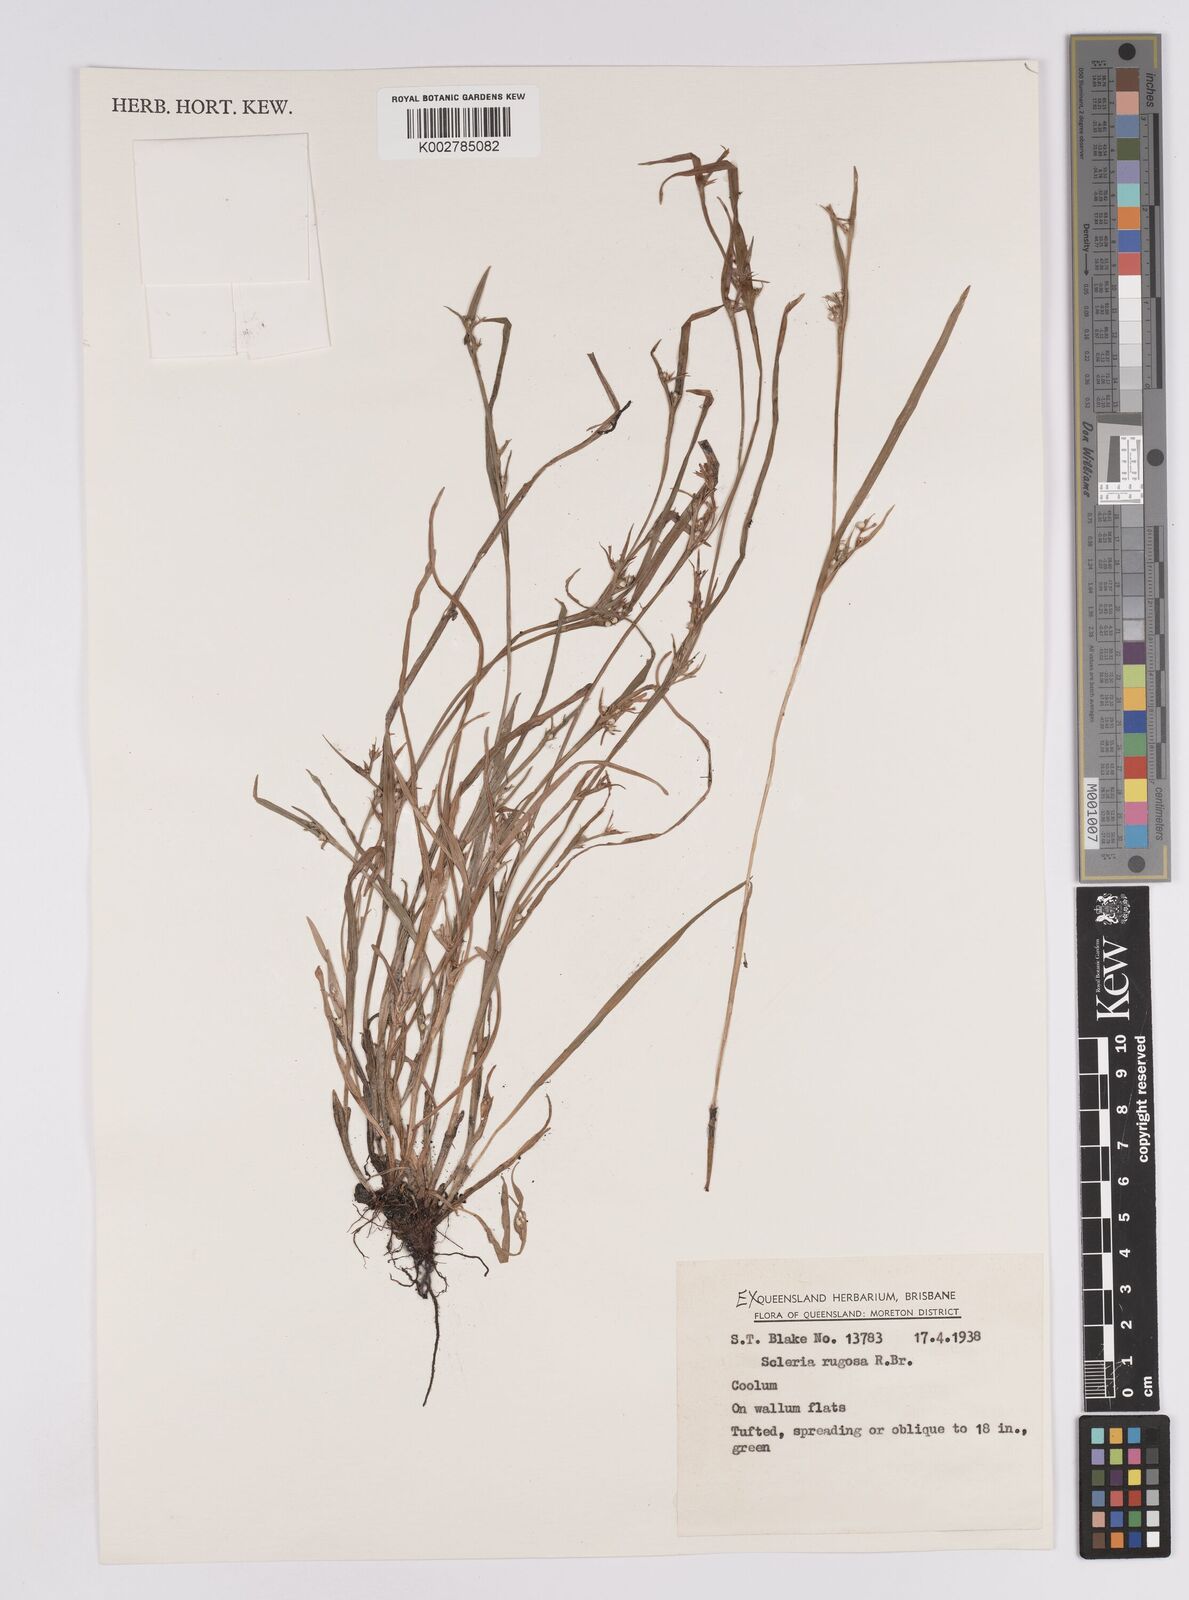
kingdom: Plantae
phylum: Tracheophyta
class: Liliopsida
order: Poales
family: Cyperaceae
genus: Scleria
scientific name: Scleria rugosa
